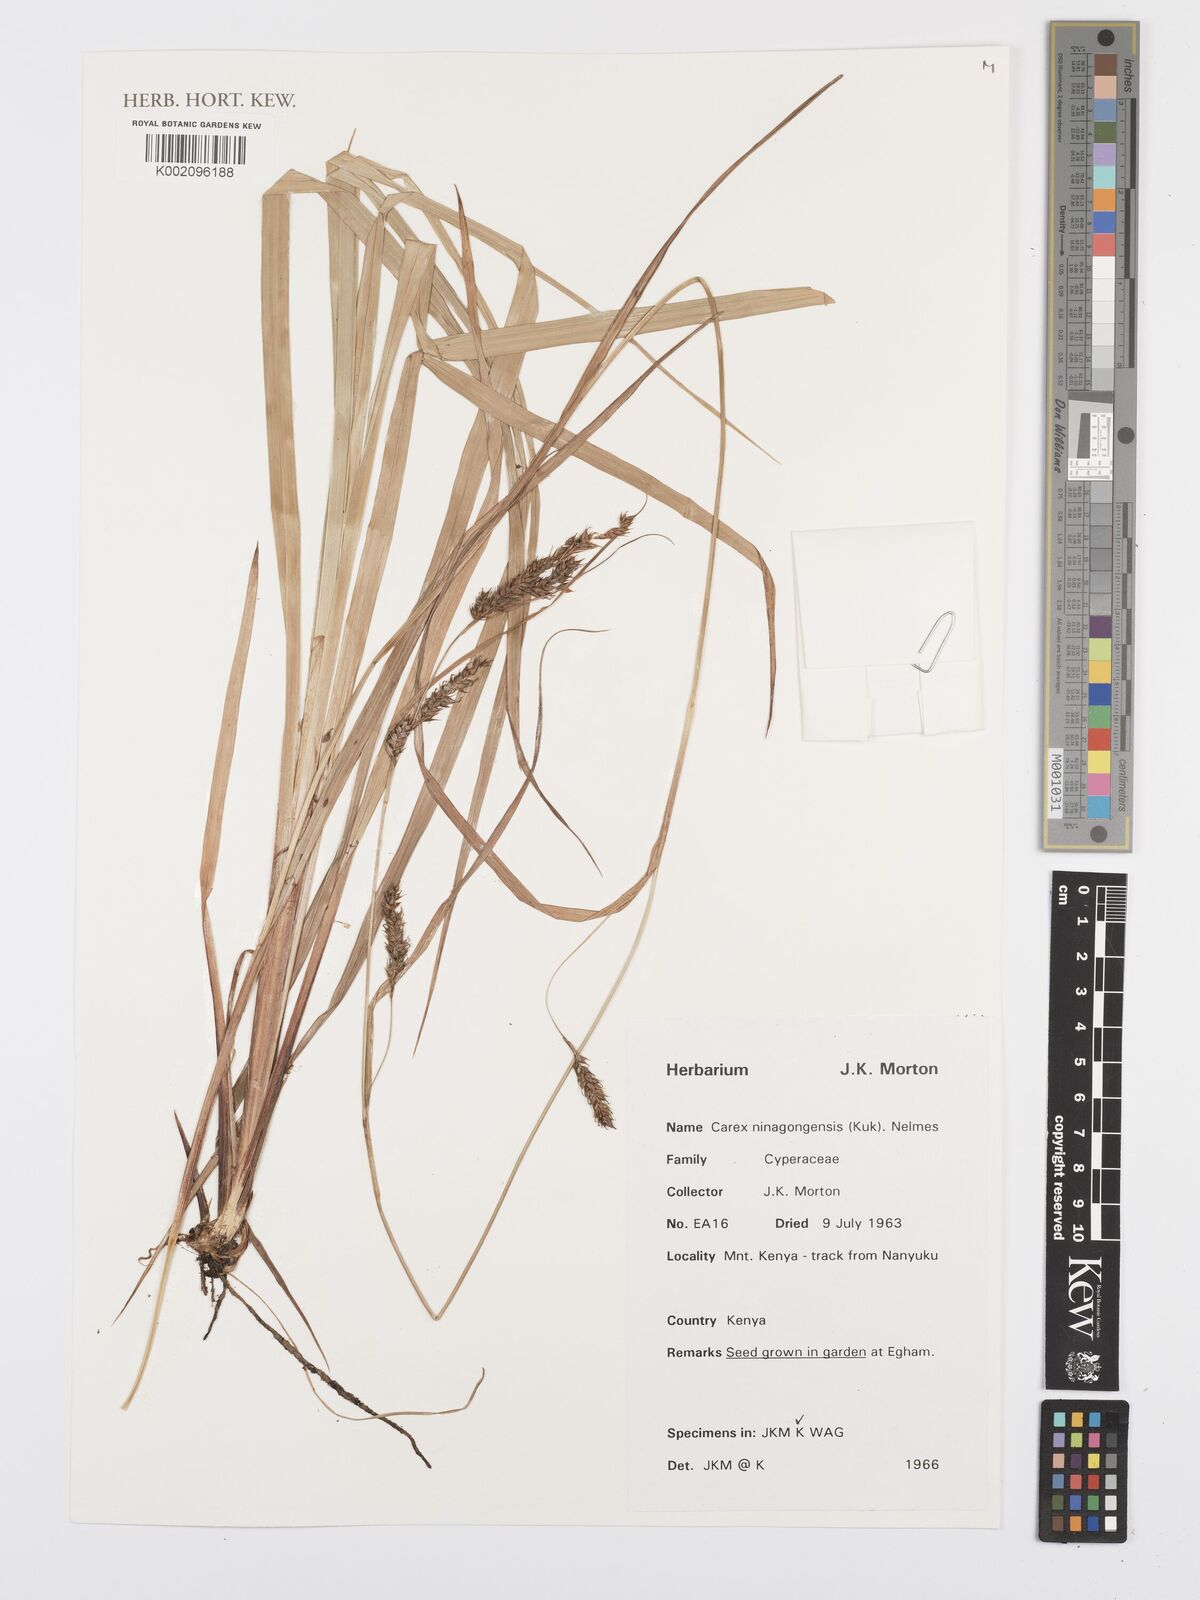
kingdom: Plantae
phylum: Tracheophyta
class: Liliopsida
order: Poales
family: Cyperaceae
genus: Carex
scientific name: Carex mannii
